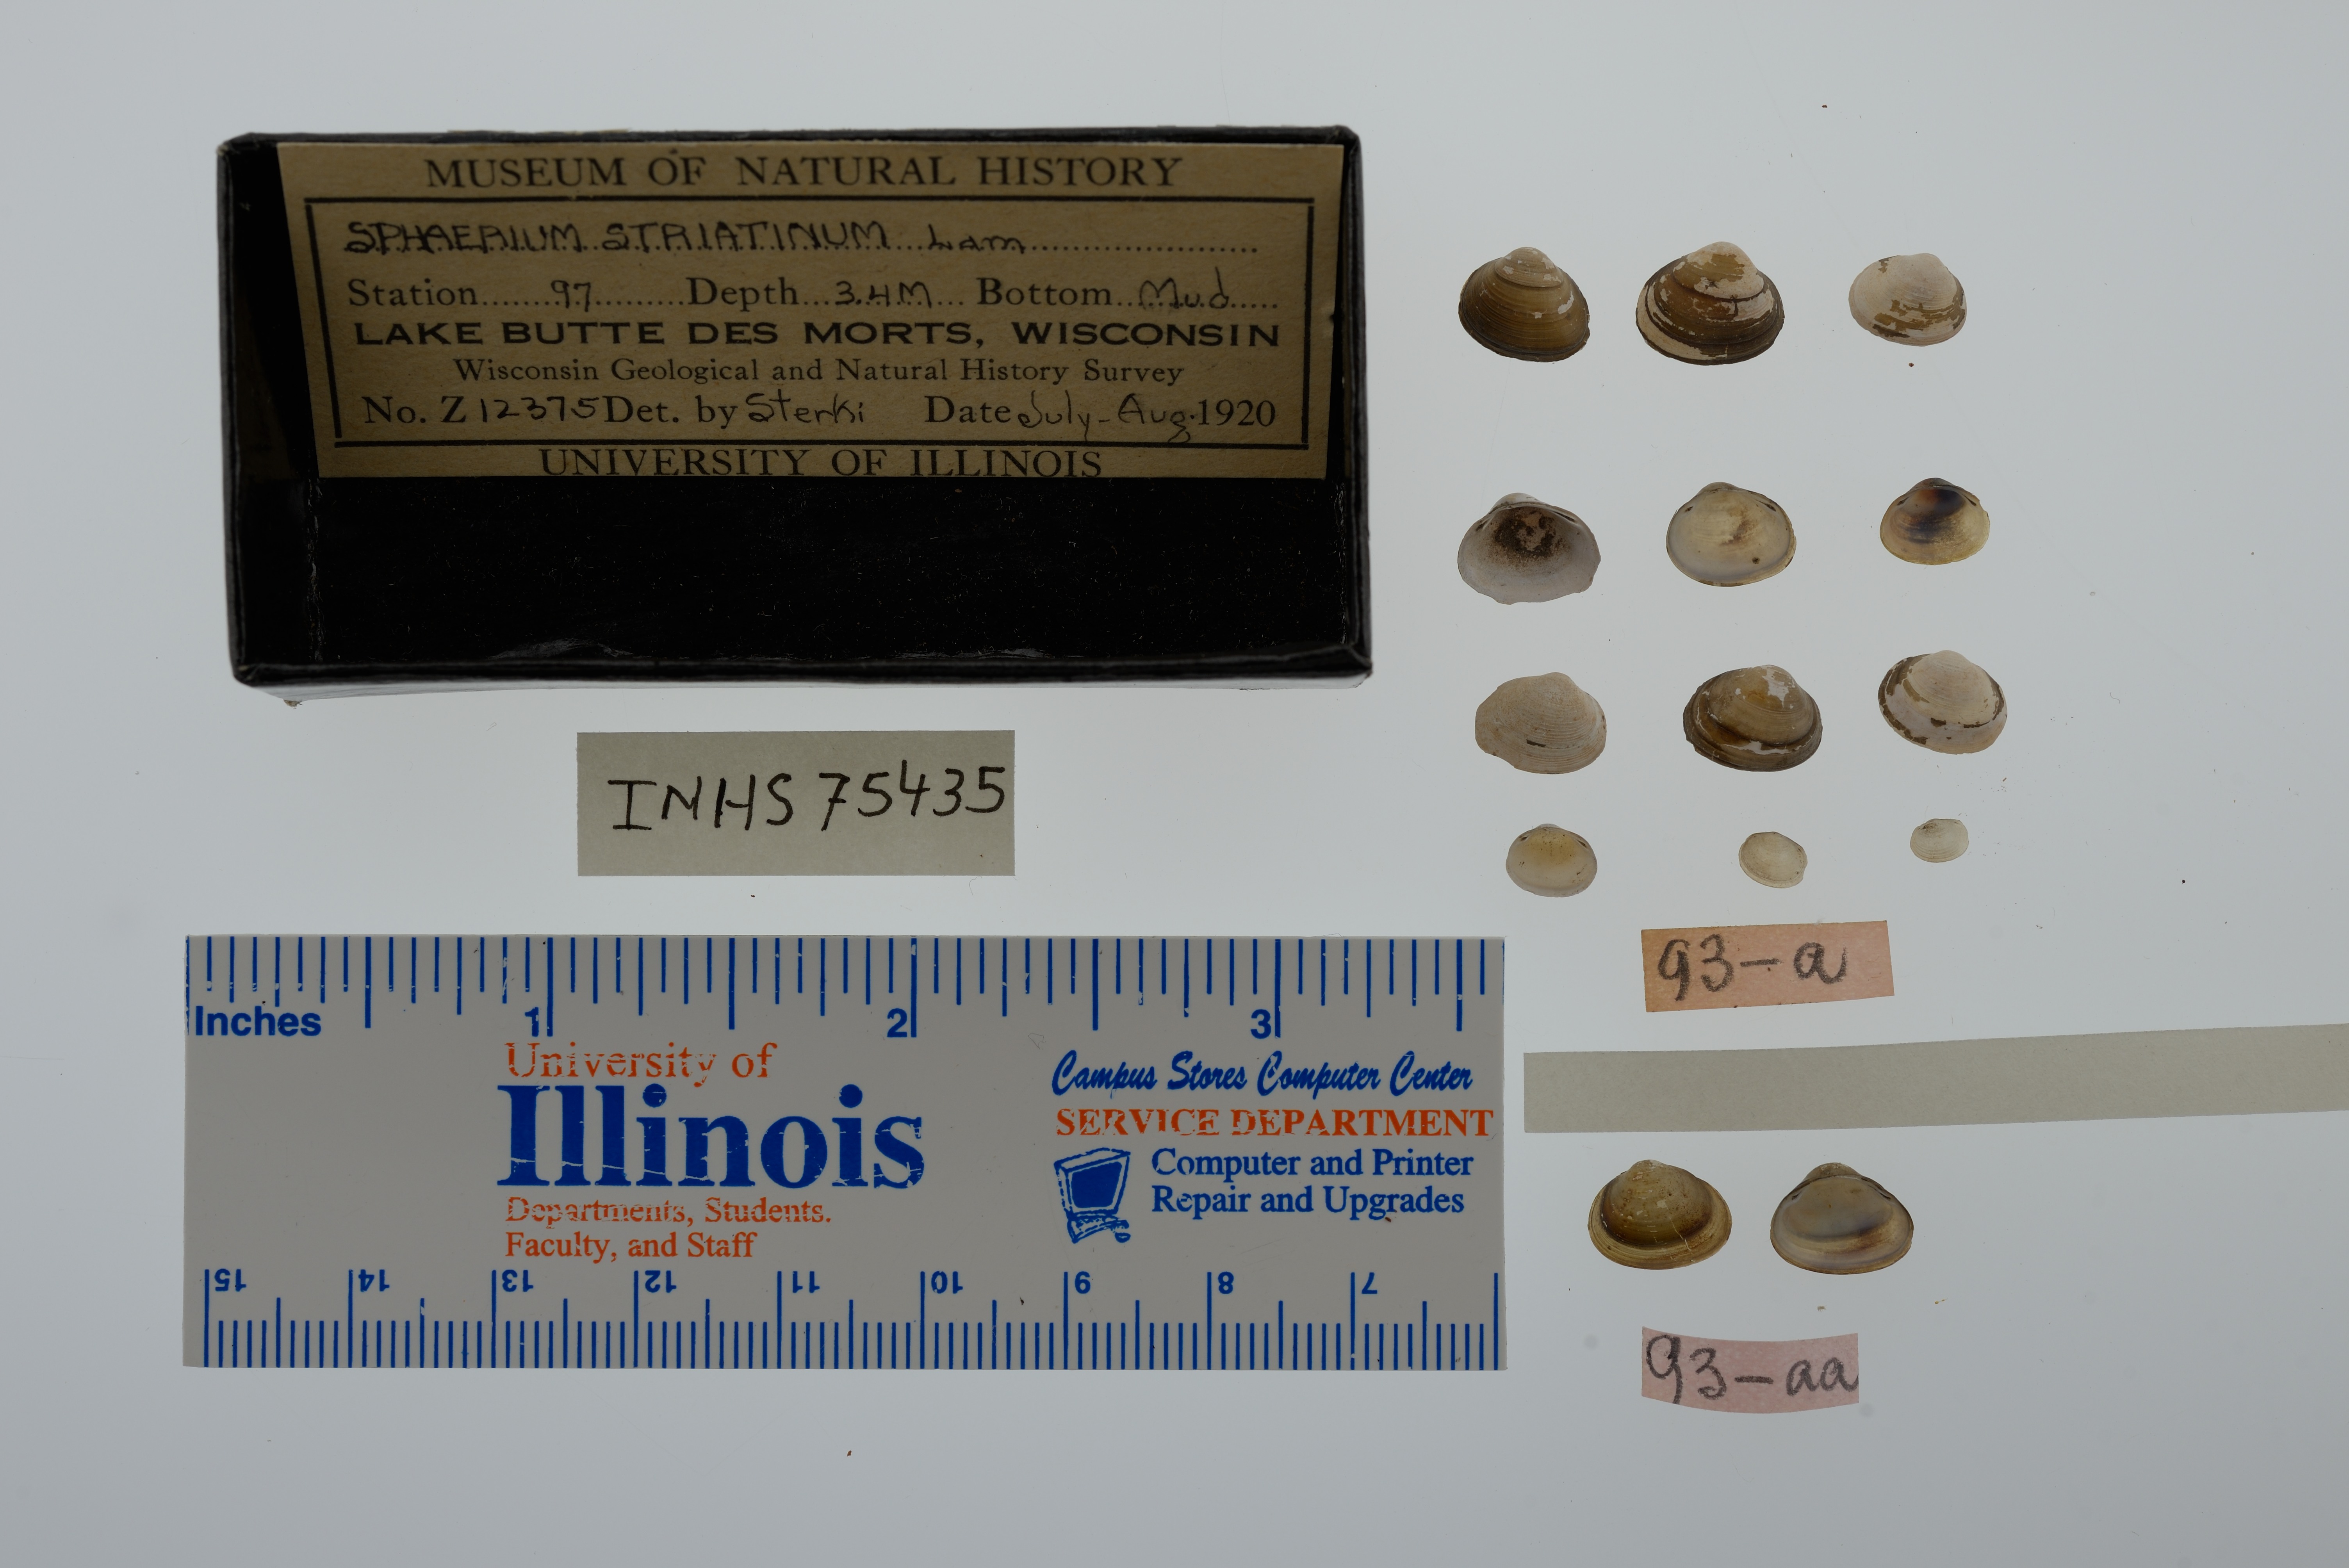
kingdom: Animalia
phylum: Mollusca
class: Bivalvia
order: Sphaeriida
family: Sphaeriidae
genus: Sphaerium
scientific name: Sphaerium striatinum
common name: Striated fingernailclam
